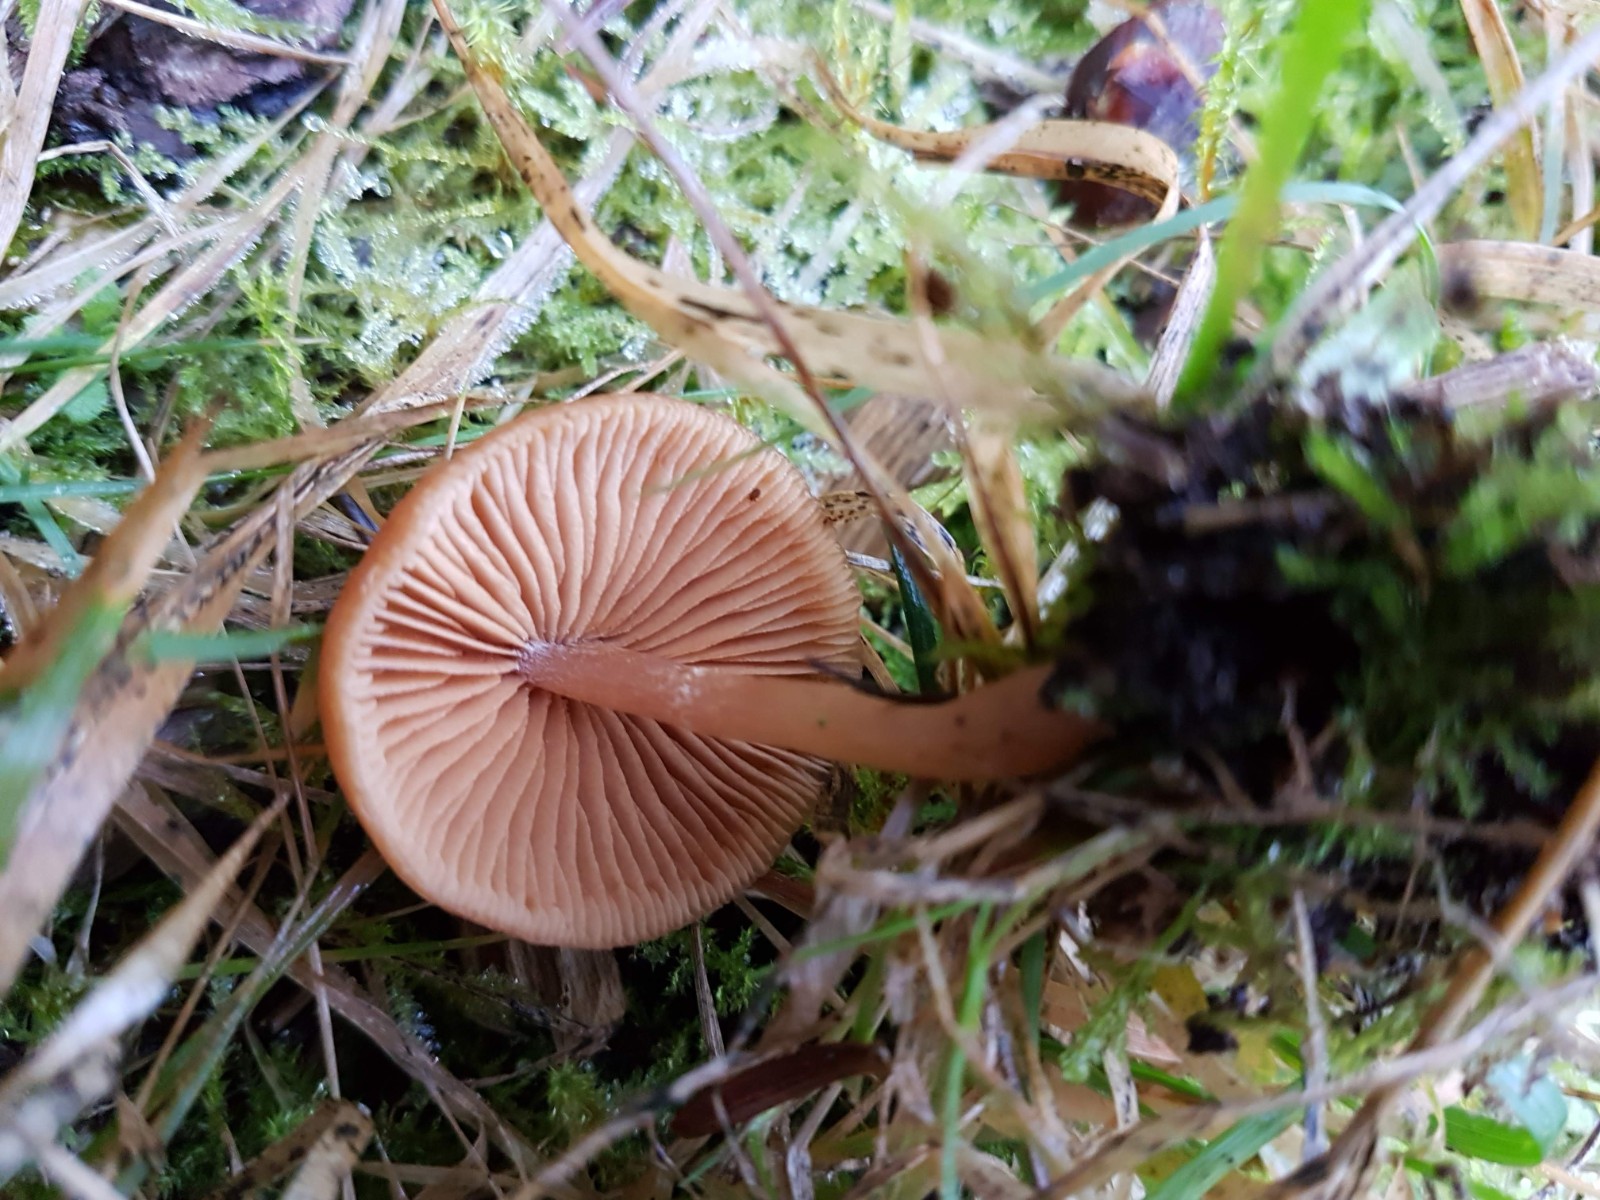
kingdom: Fungi
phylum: Basidiomycota
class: Agaricomycetes
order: Agaricales
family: Tubariaceae
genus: Tubaria
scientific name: Tubaria furfuracea
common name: kliddet fnughat
